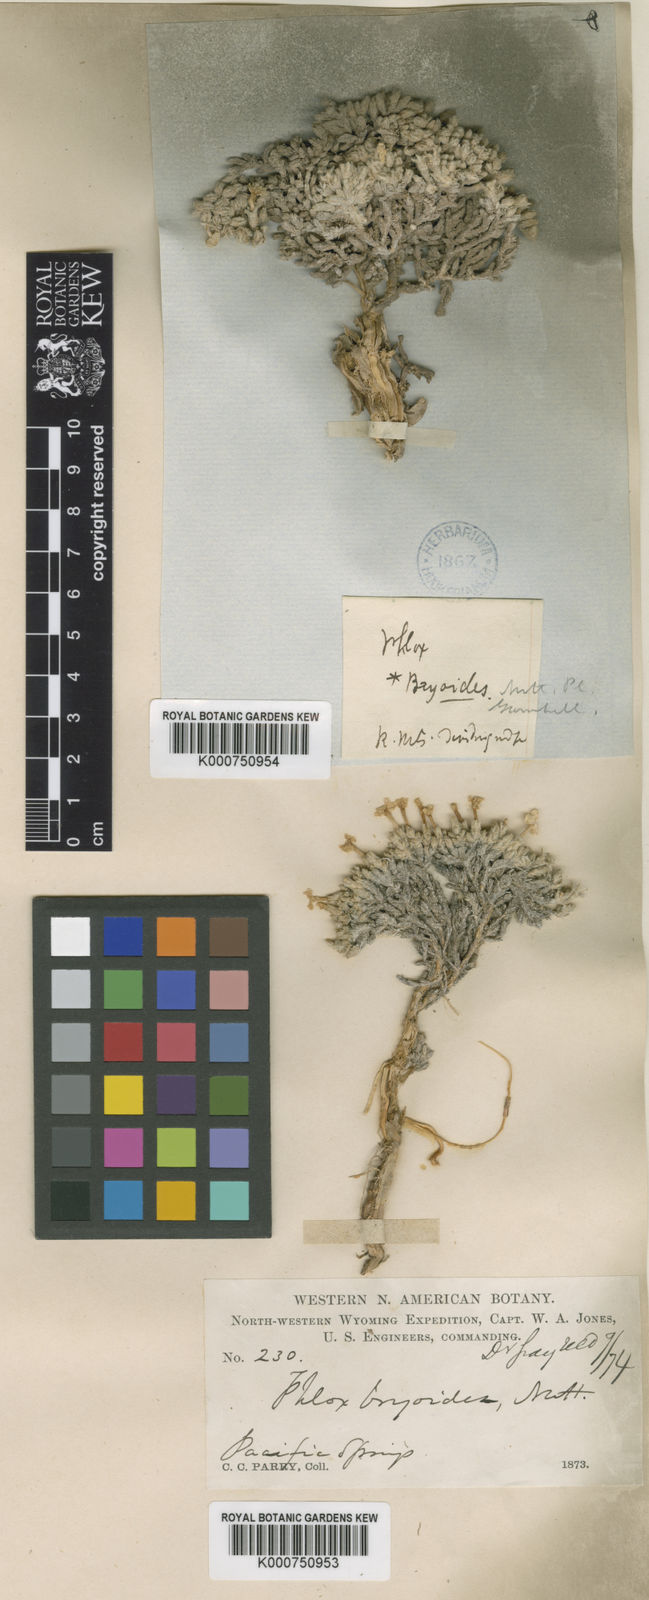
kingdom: Plantae
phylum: Tracheophyta
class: Magnoliopsida
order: Ericales
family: Polemoniaceae
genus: Phlox
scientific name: Phlox hoodii
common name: Moss phlox
